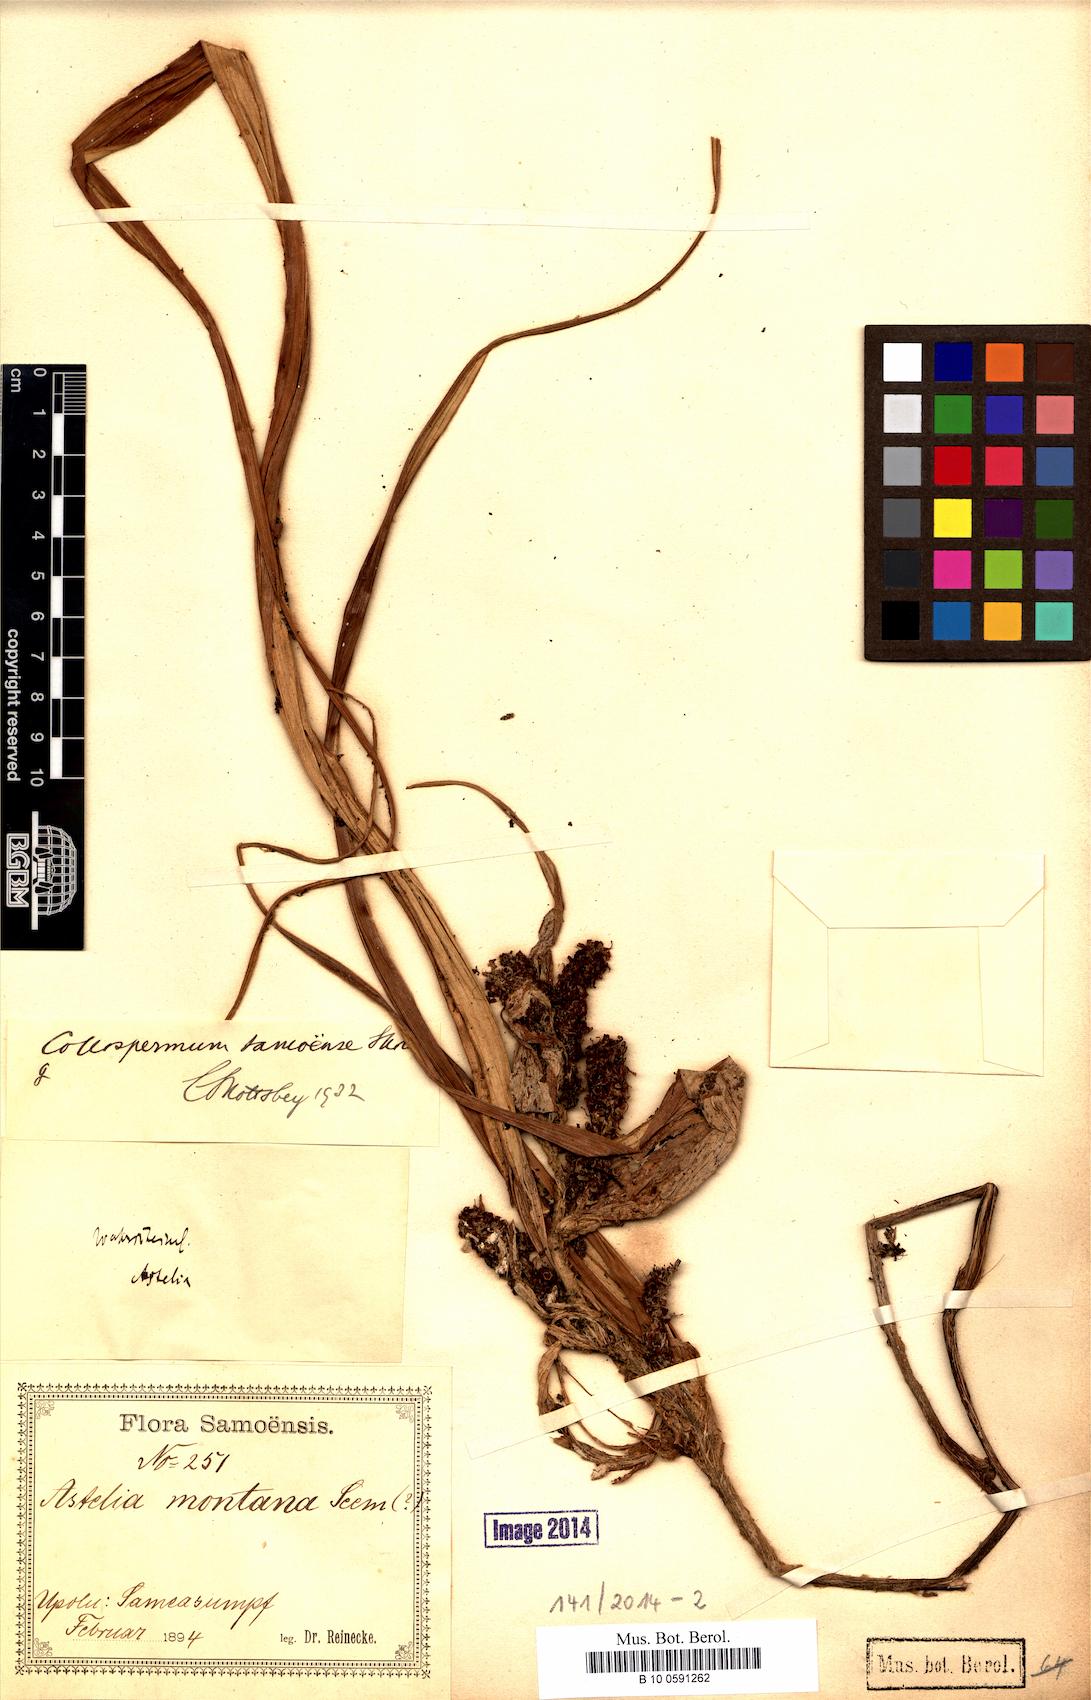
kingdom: Plantae
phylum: Tracheophyta
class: Liliopsida
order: Asparagales
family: Asteliaceae
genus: Astelia
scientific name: Astelia samoense
